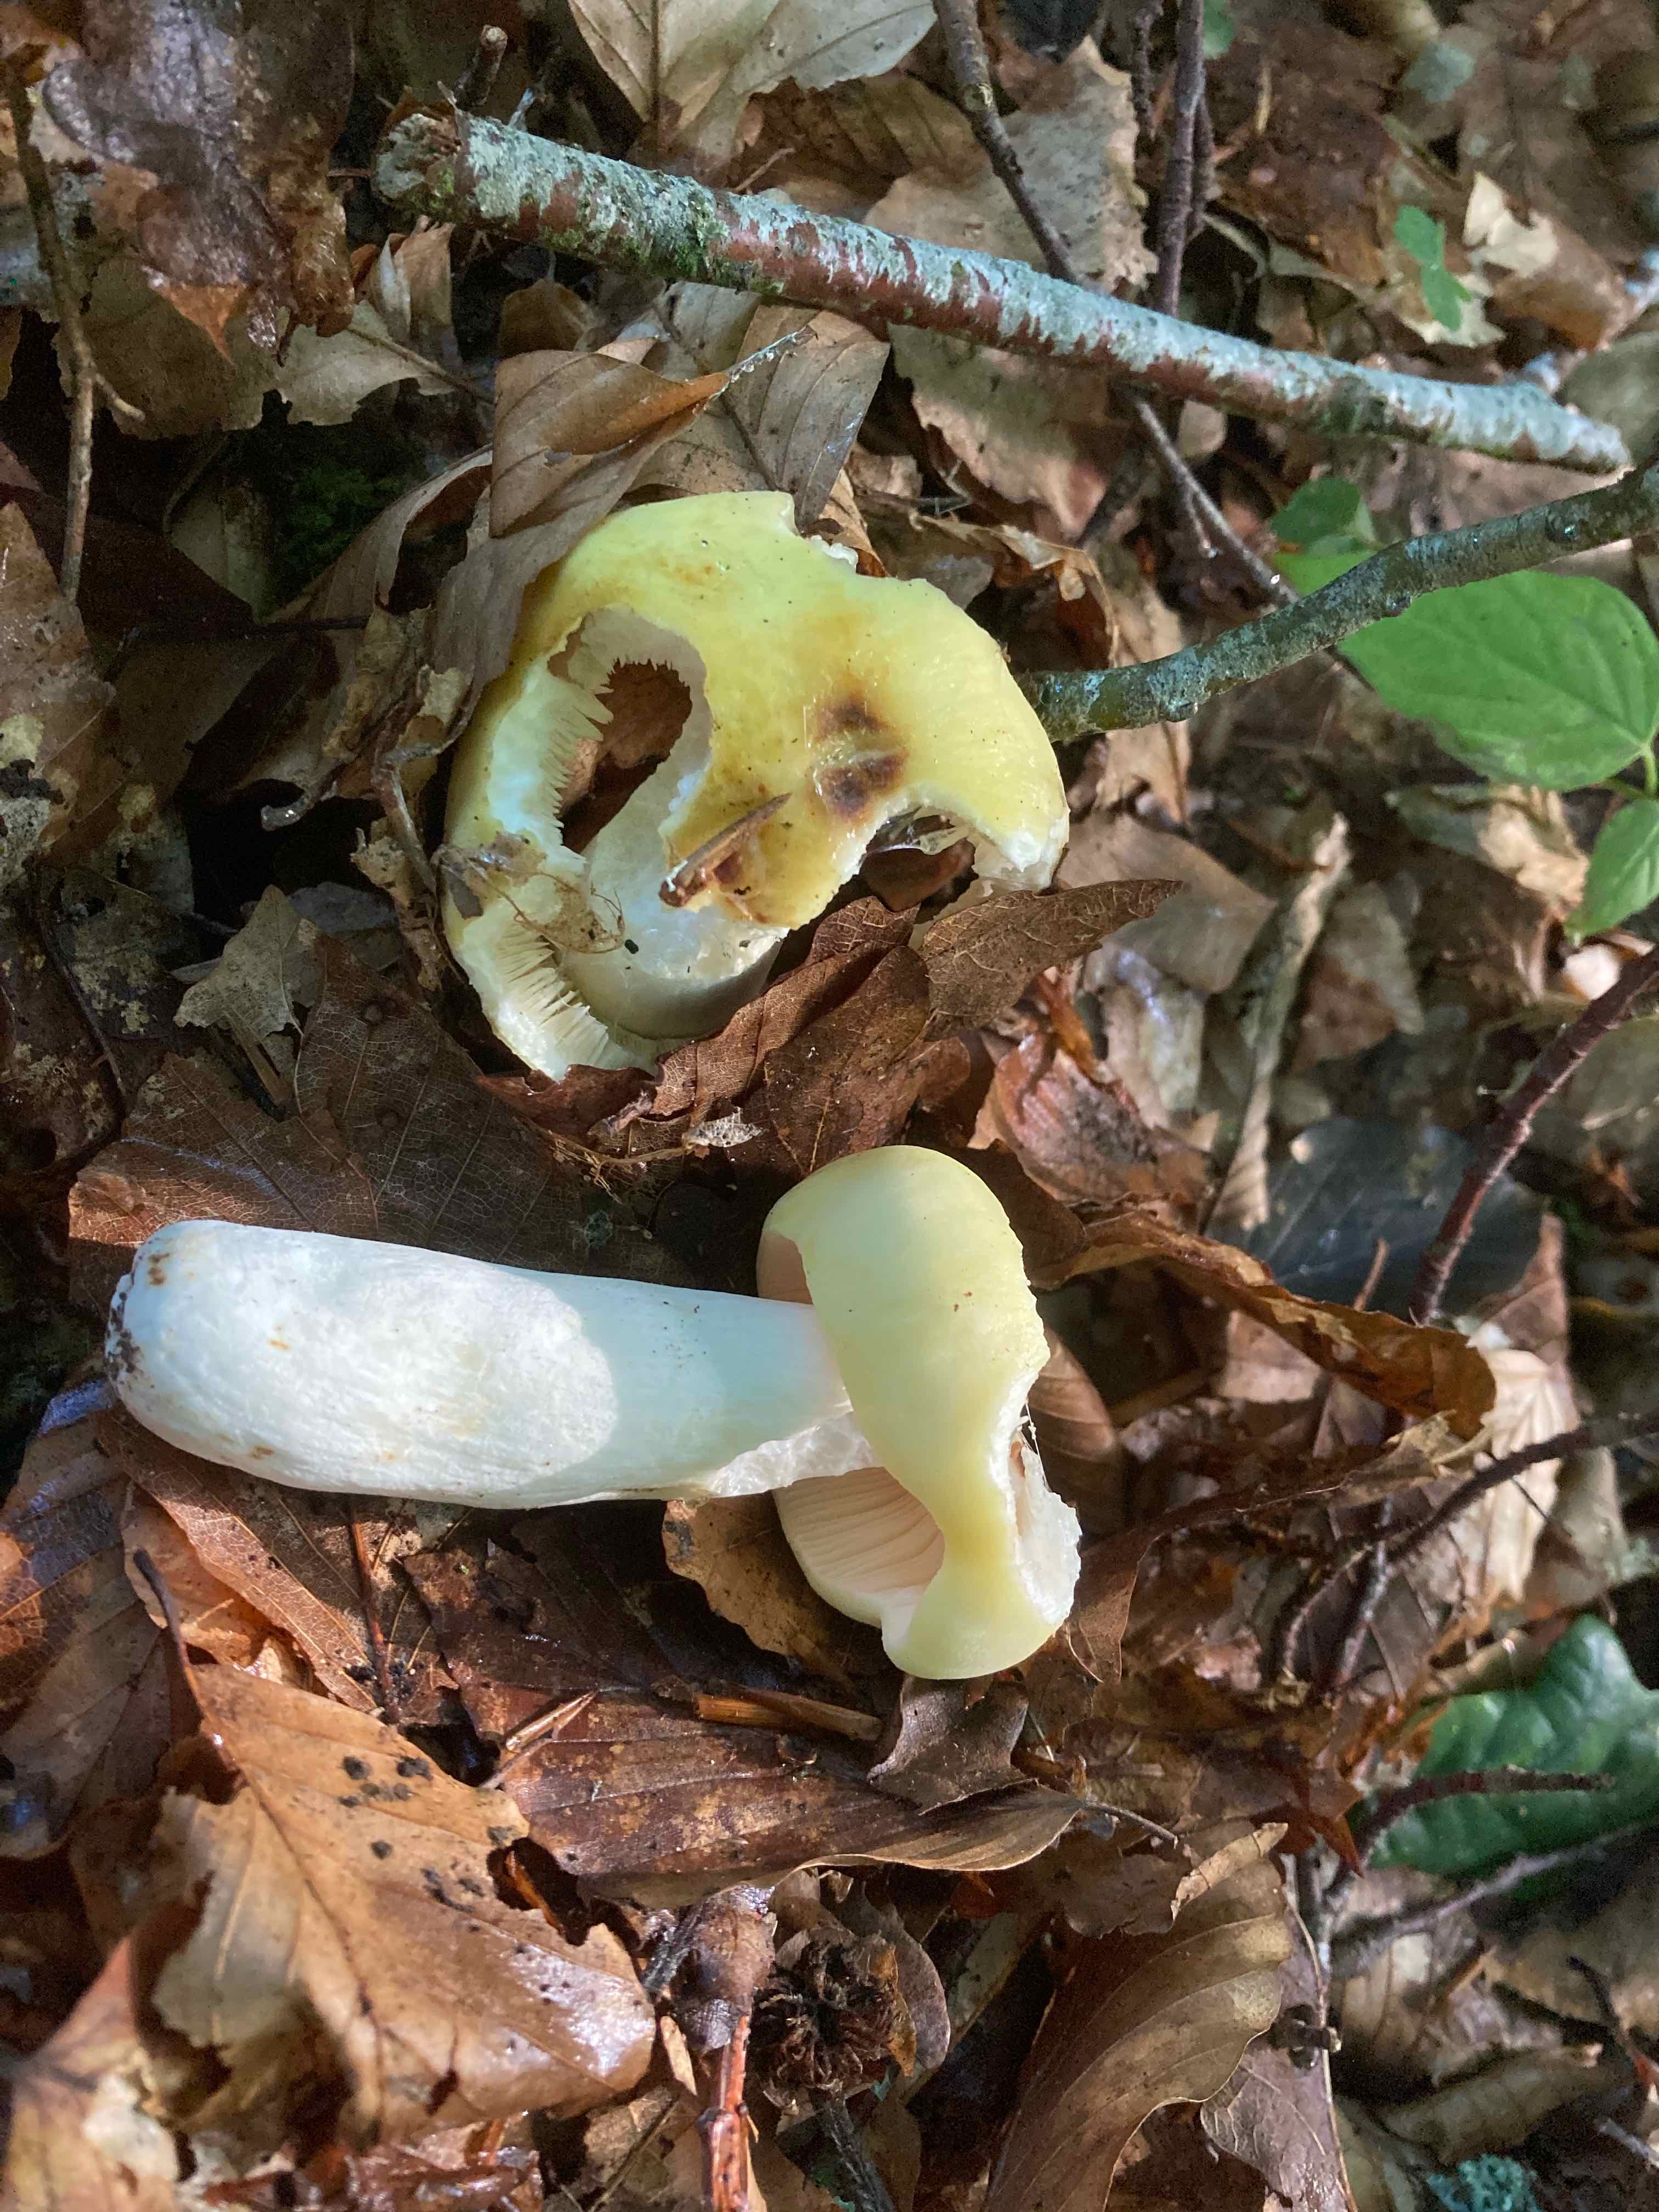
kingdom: Fungi
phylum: Basidiomycota
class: Agaricomycetes
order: Russulales
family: Russulaceae
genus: Russula
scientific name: Russula violeipes
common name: ferskengul skørhat
